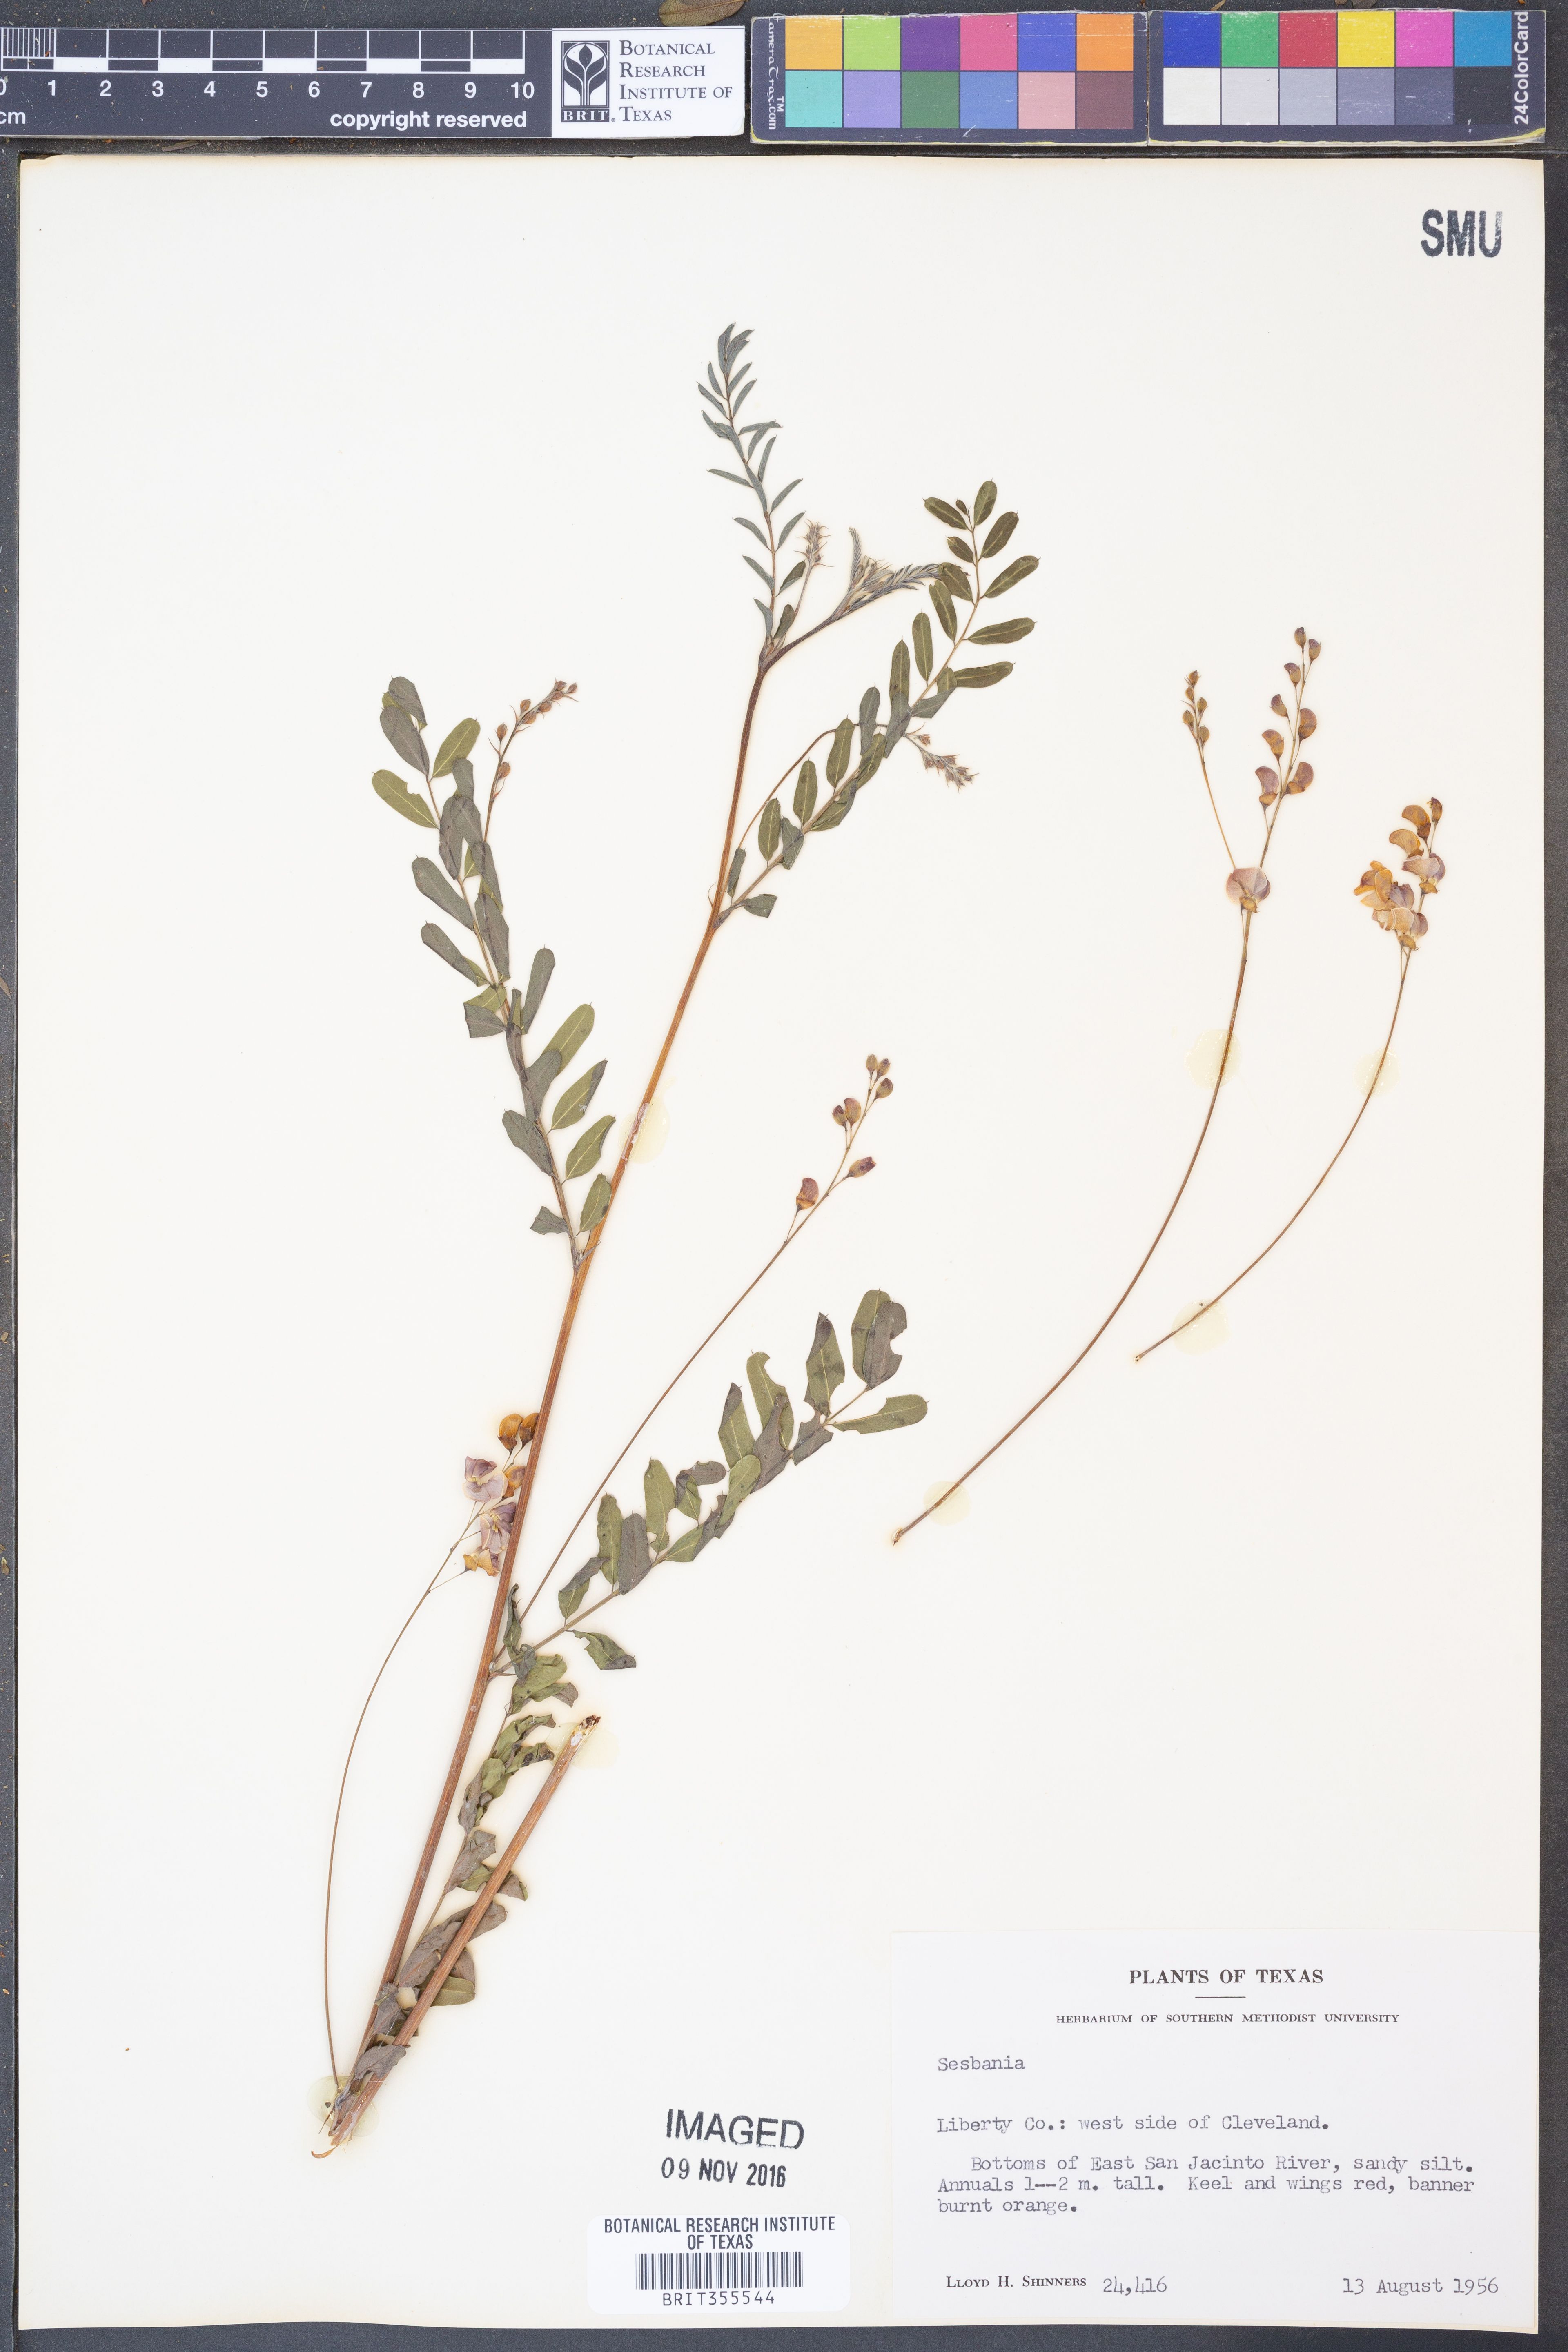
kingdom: Plantae
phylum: Tracheophyta
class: Magnoliopsida
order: Fabales
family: Fabaceae
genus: Sesbania
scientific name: Sesbania
